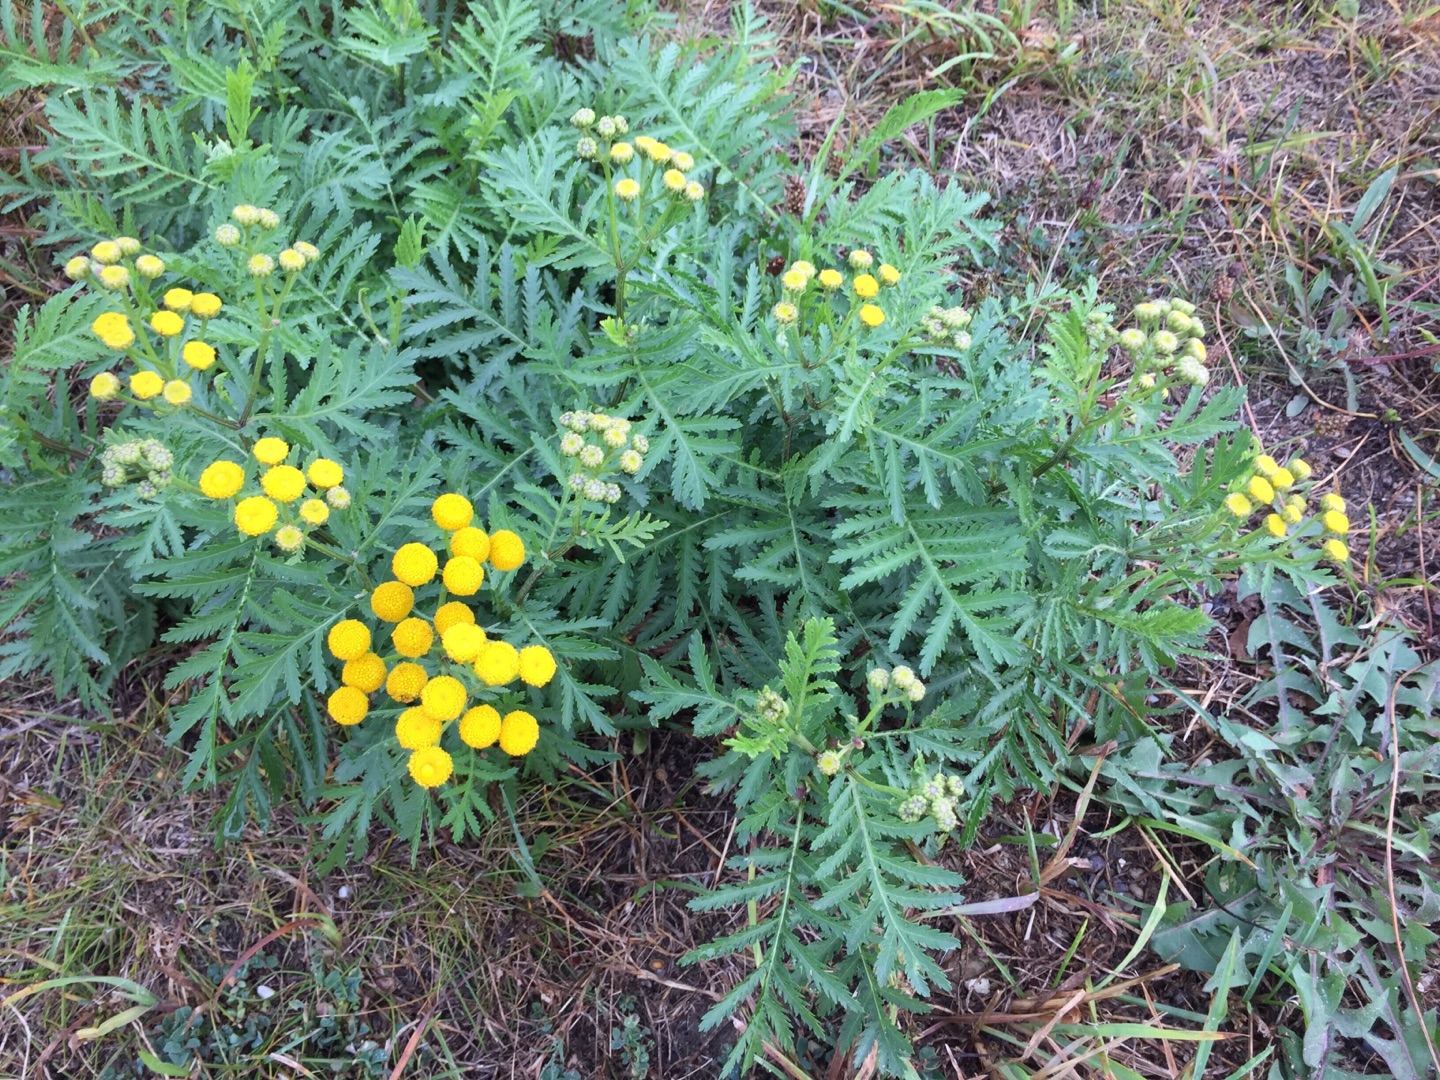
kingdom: Plantae
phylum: Tracheophyta
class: Magnoliopsida
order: Asterales
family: Asteraceae
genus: Tanacetum
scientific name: Tanacetum vulgare
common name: Rejnfan
